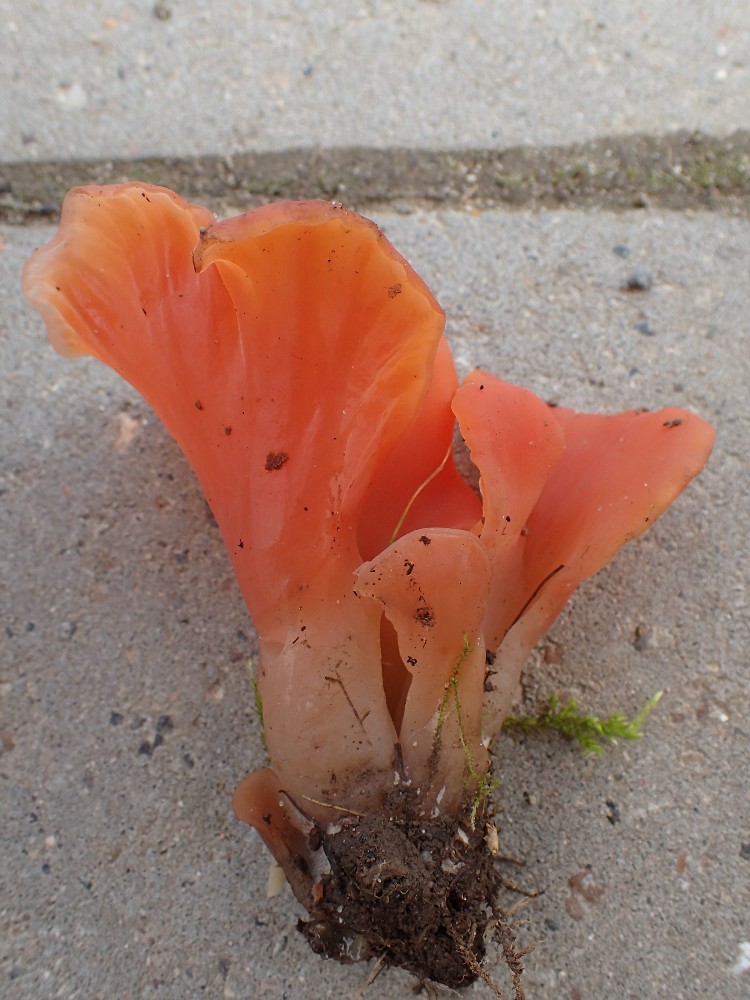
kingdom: Fungi
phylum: Basidiomycota
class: Agaricomycetes
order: Auriculariales
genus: Guepinia
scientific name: Guepinia helvelloides
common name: bævretunge
